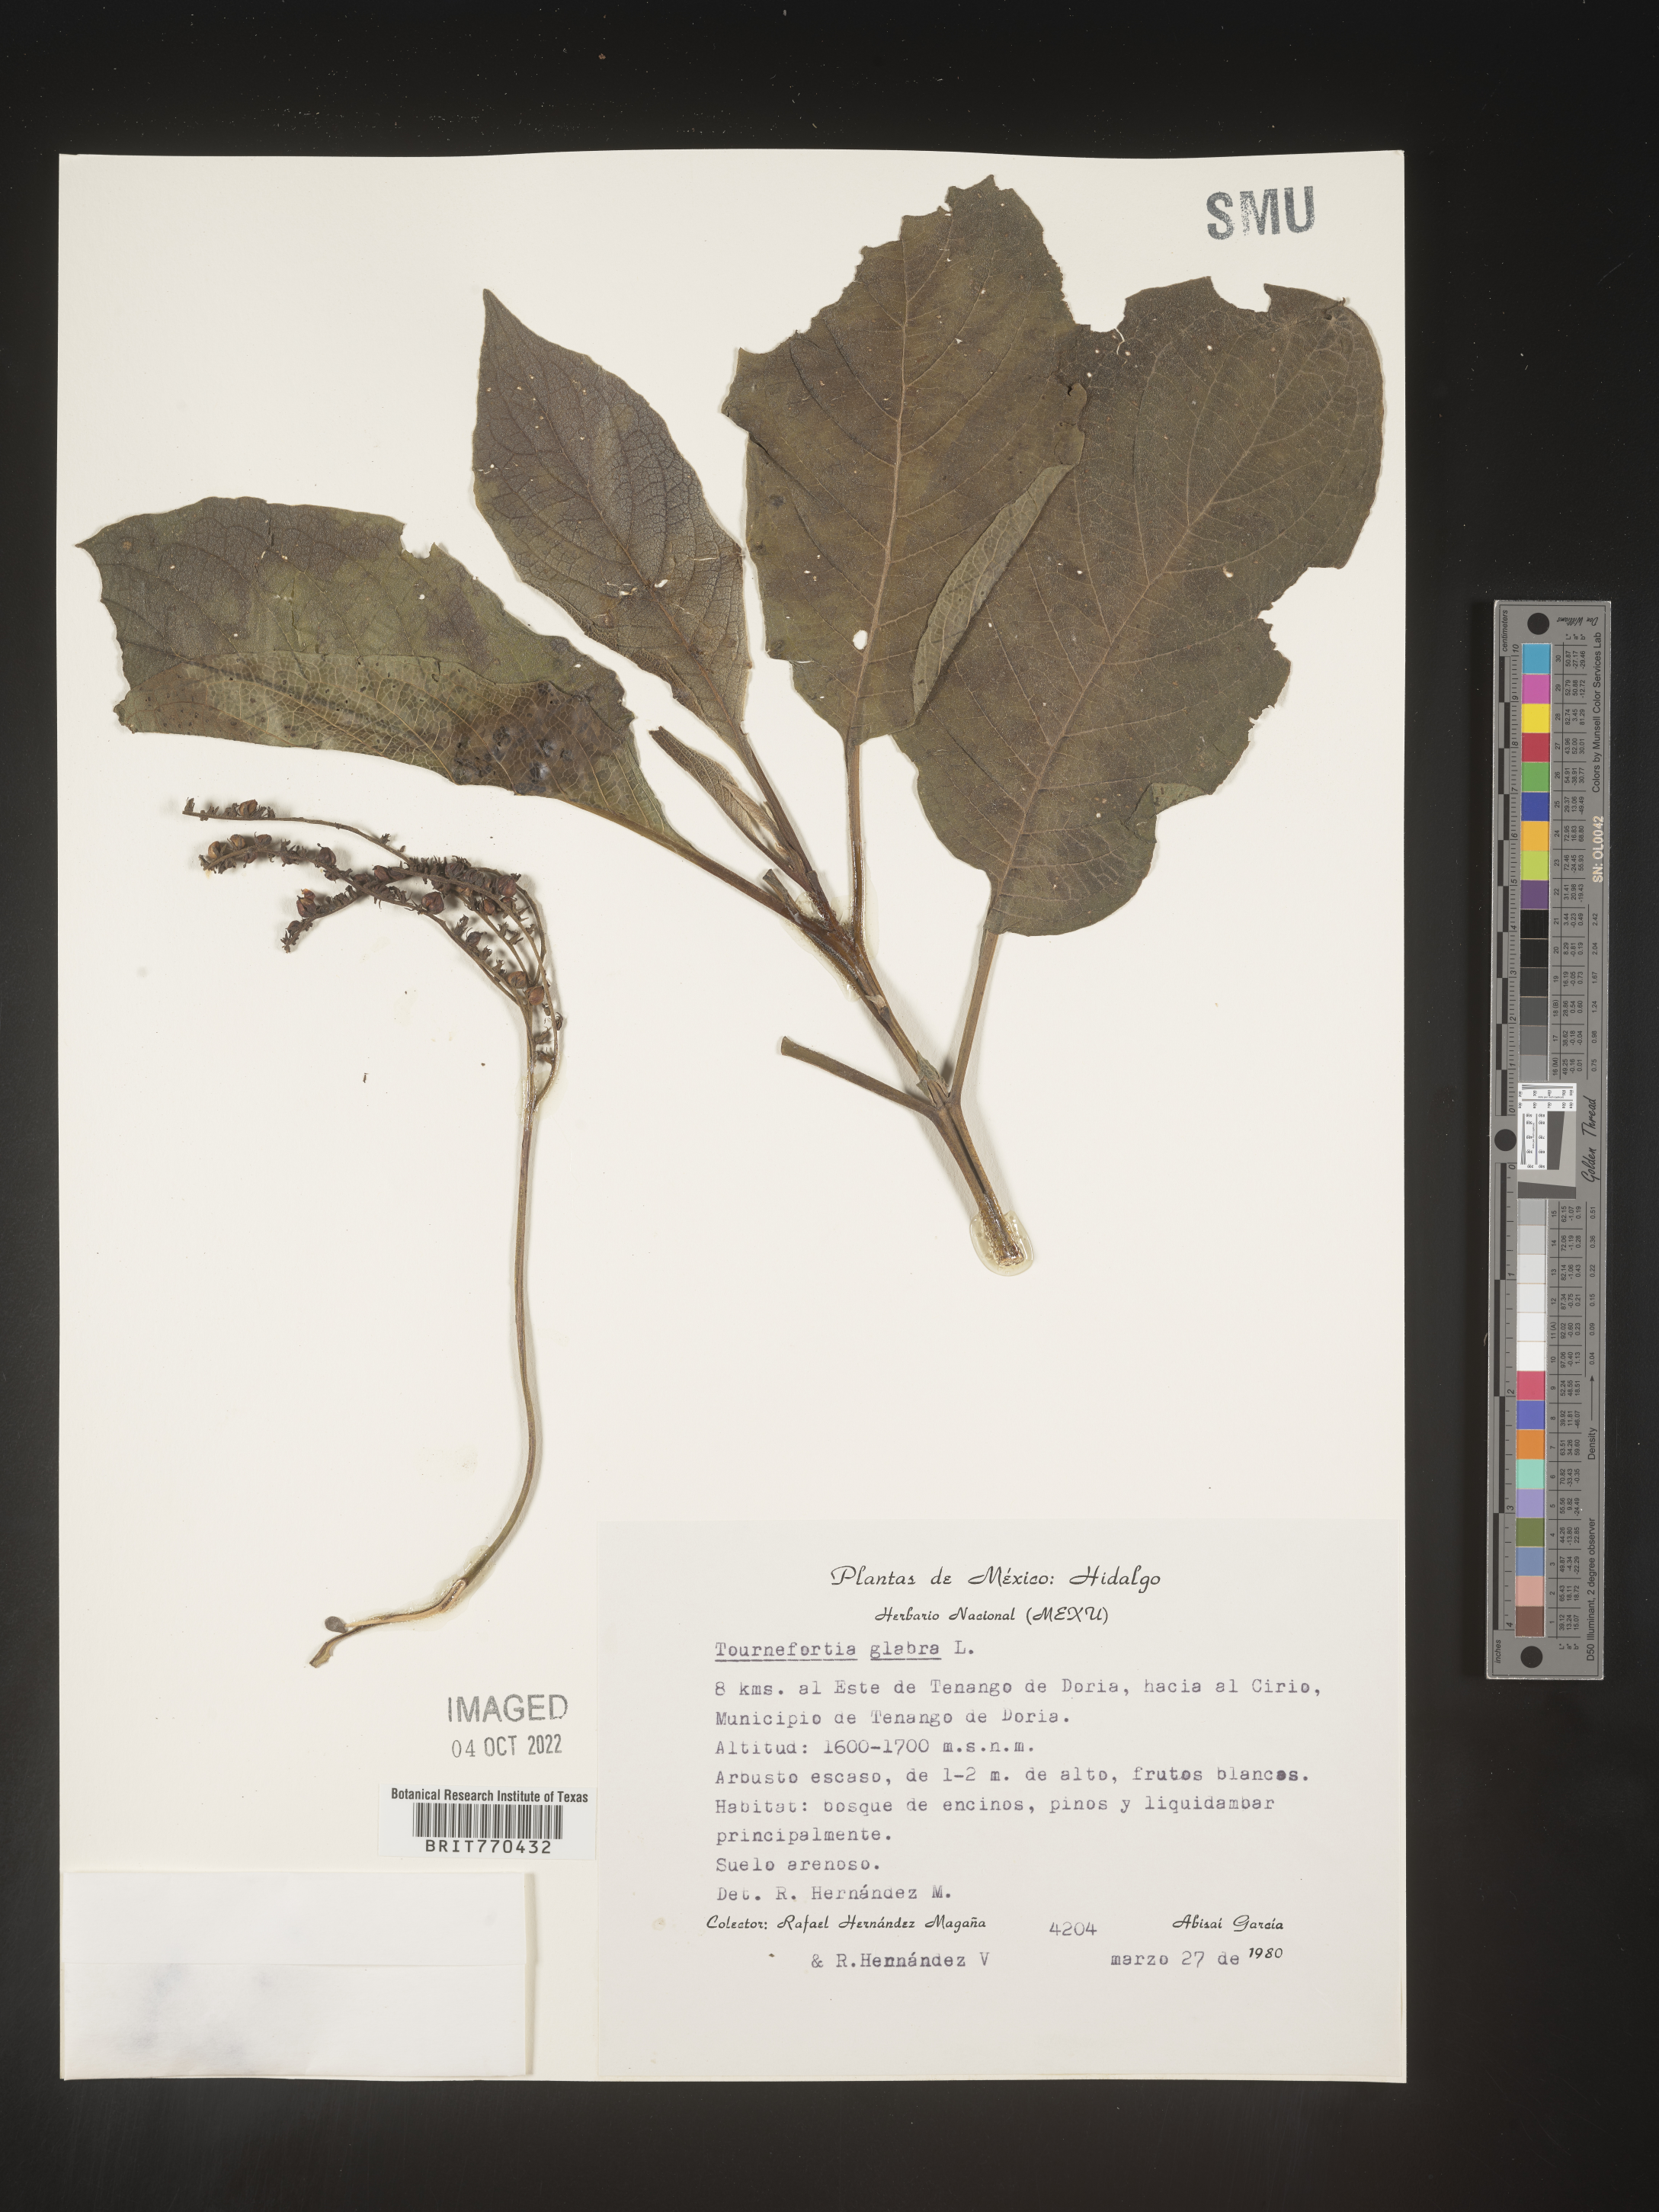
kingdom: Plantae
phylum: Tracheophyta
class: Magnoliopsida
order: Boraginales
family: Heliotropiaceae
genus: Tournefortia
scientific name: Tournefortia
